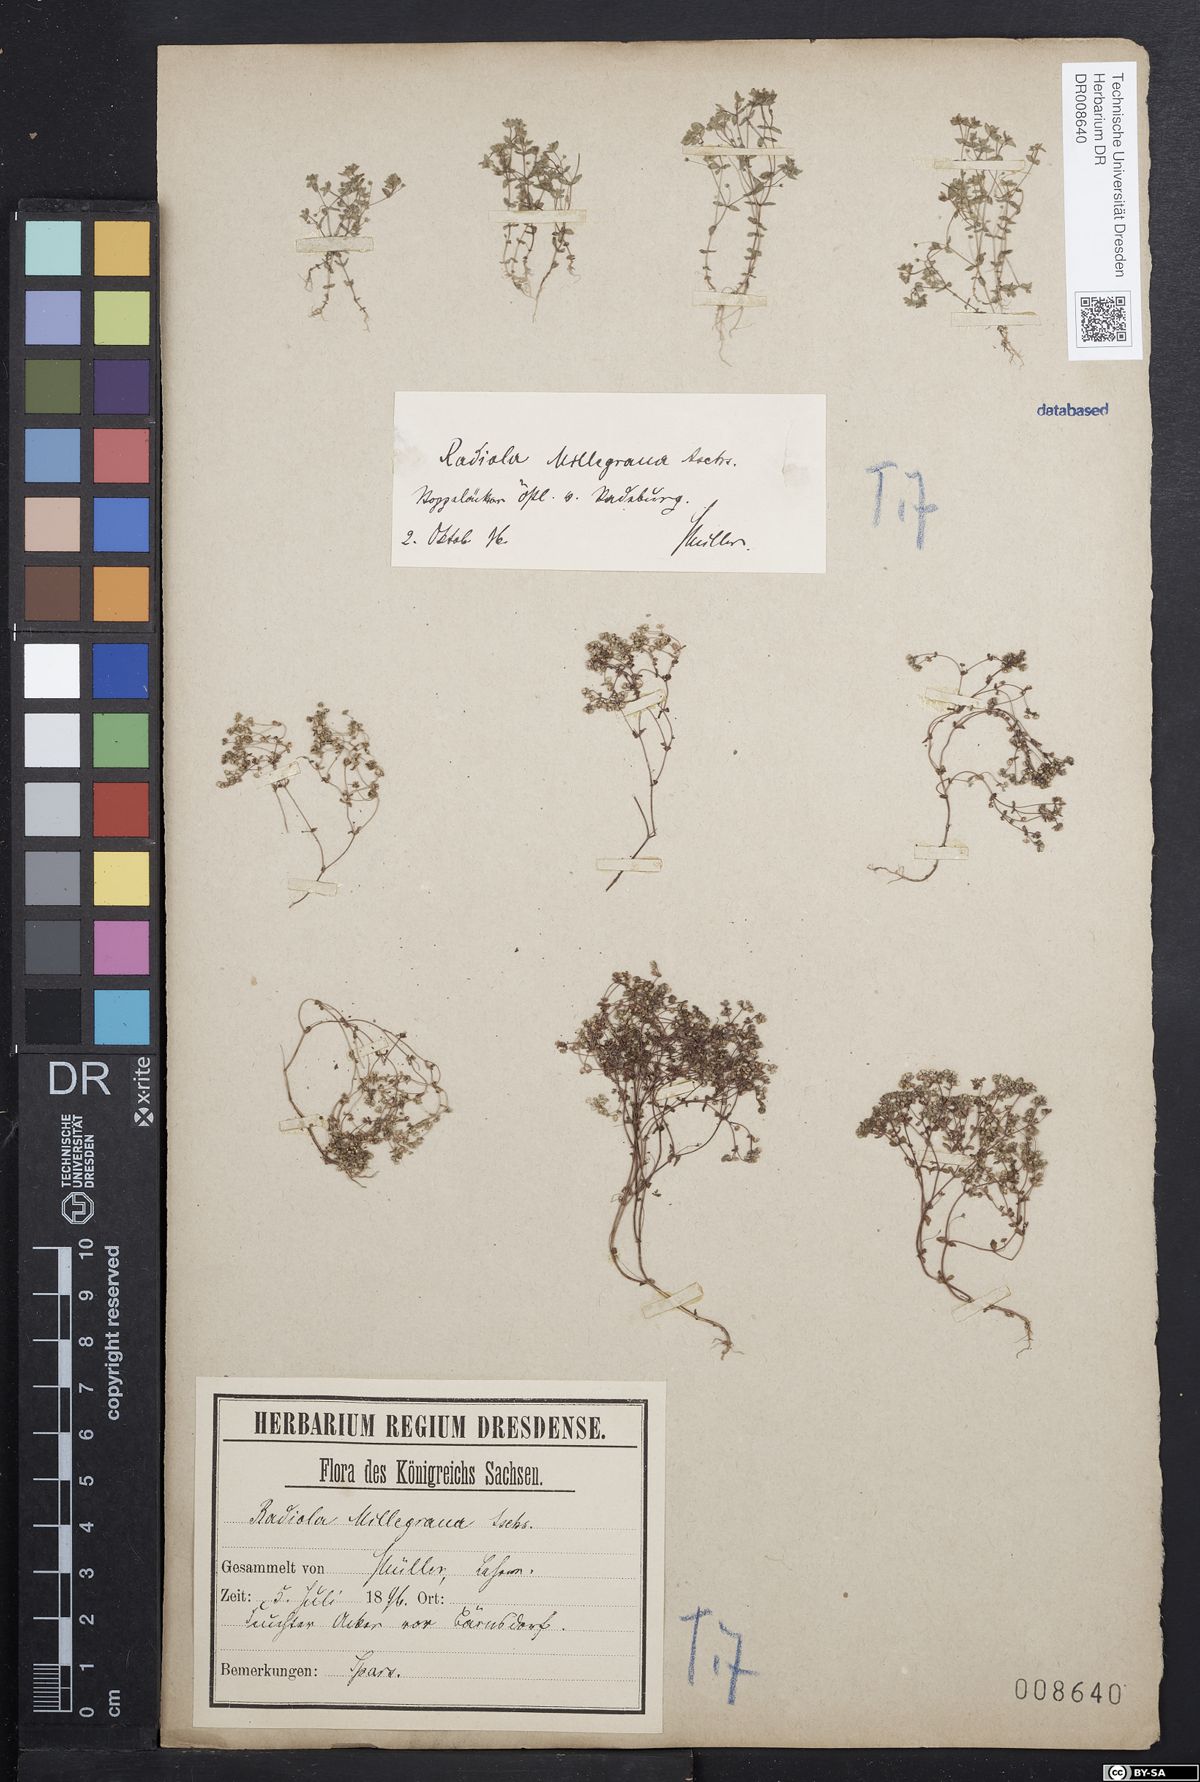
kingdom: Plantae
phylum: Tracheophyta
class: Magnoliopsida
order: Malpighiales
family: Linaceae
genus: Radiola
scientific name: Radiola linoides
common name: Allseed
